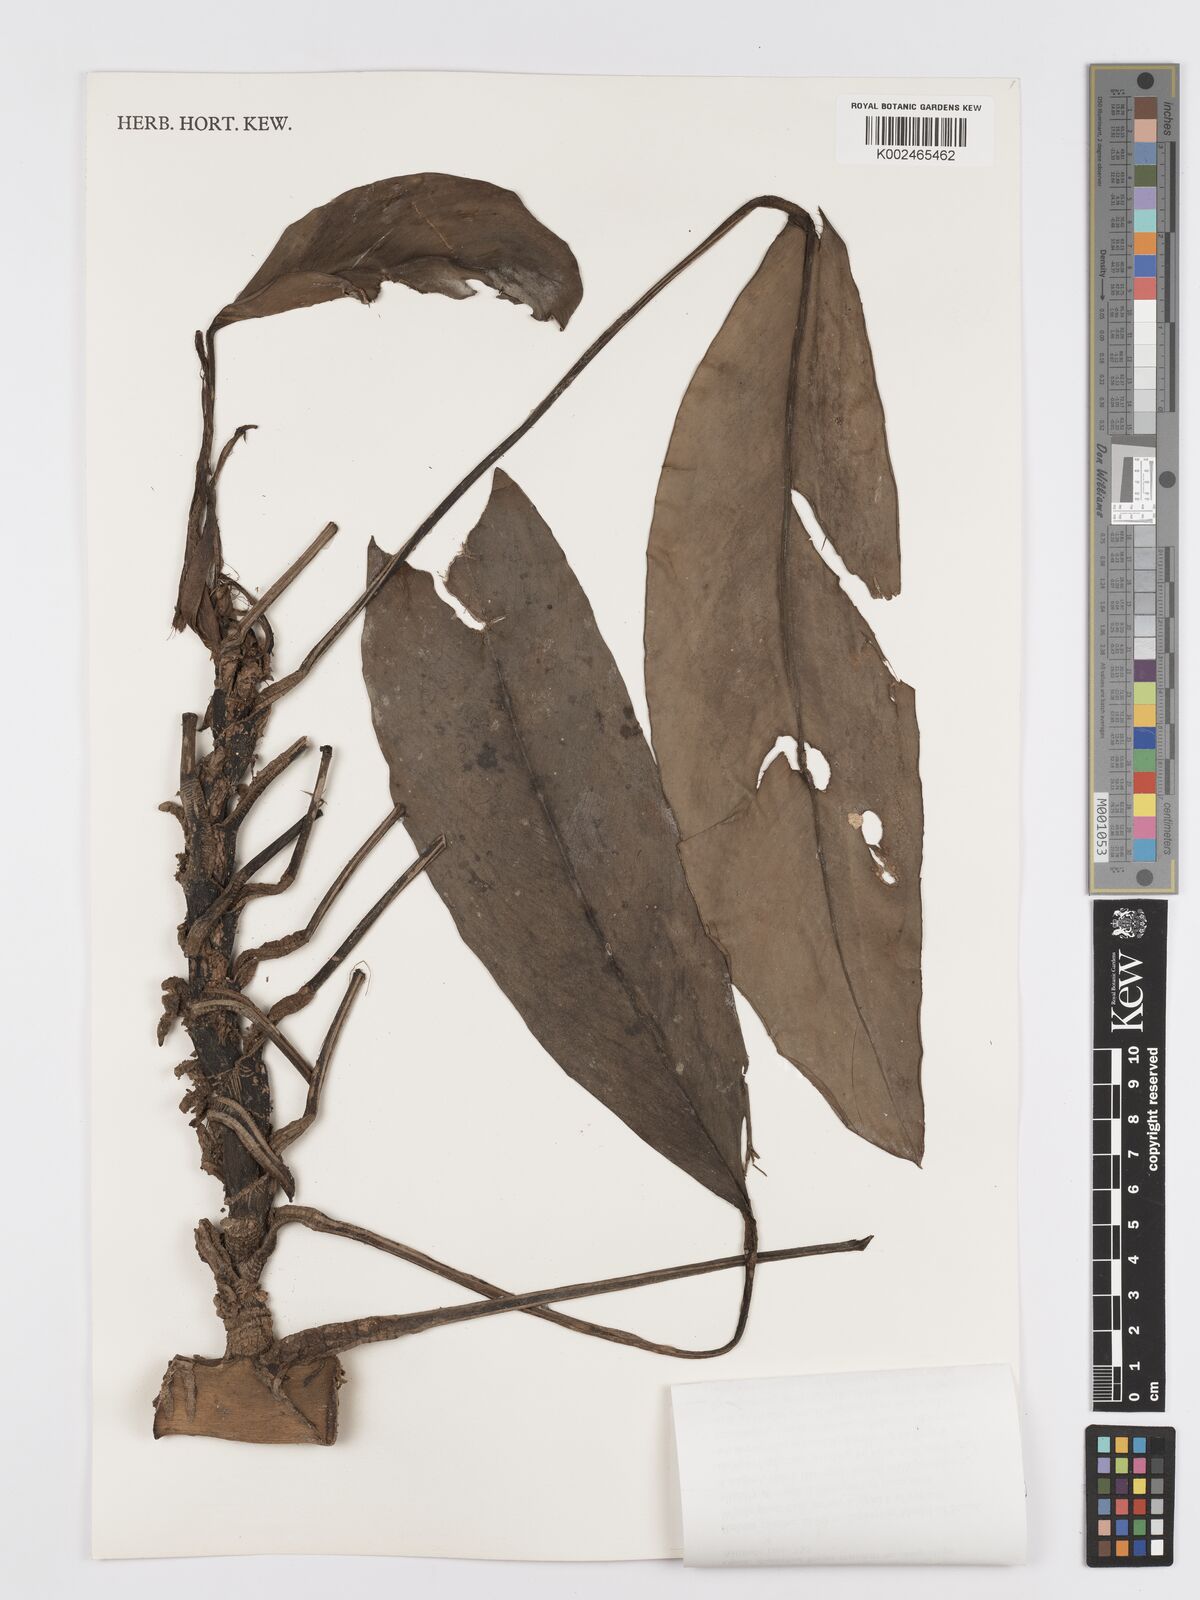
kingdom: Plantae
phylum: Tracheophyta
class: Liliopsida
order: Alismatales
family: Araceae
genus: Rhaphidophora
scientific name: Rhaphidophora maingayi
